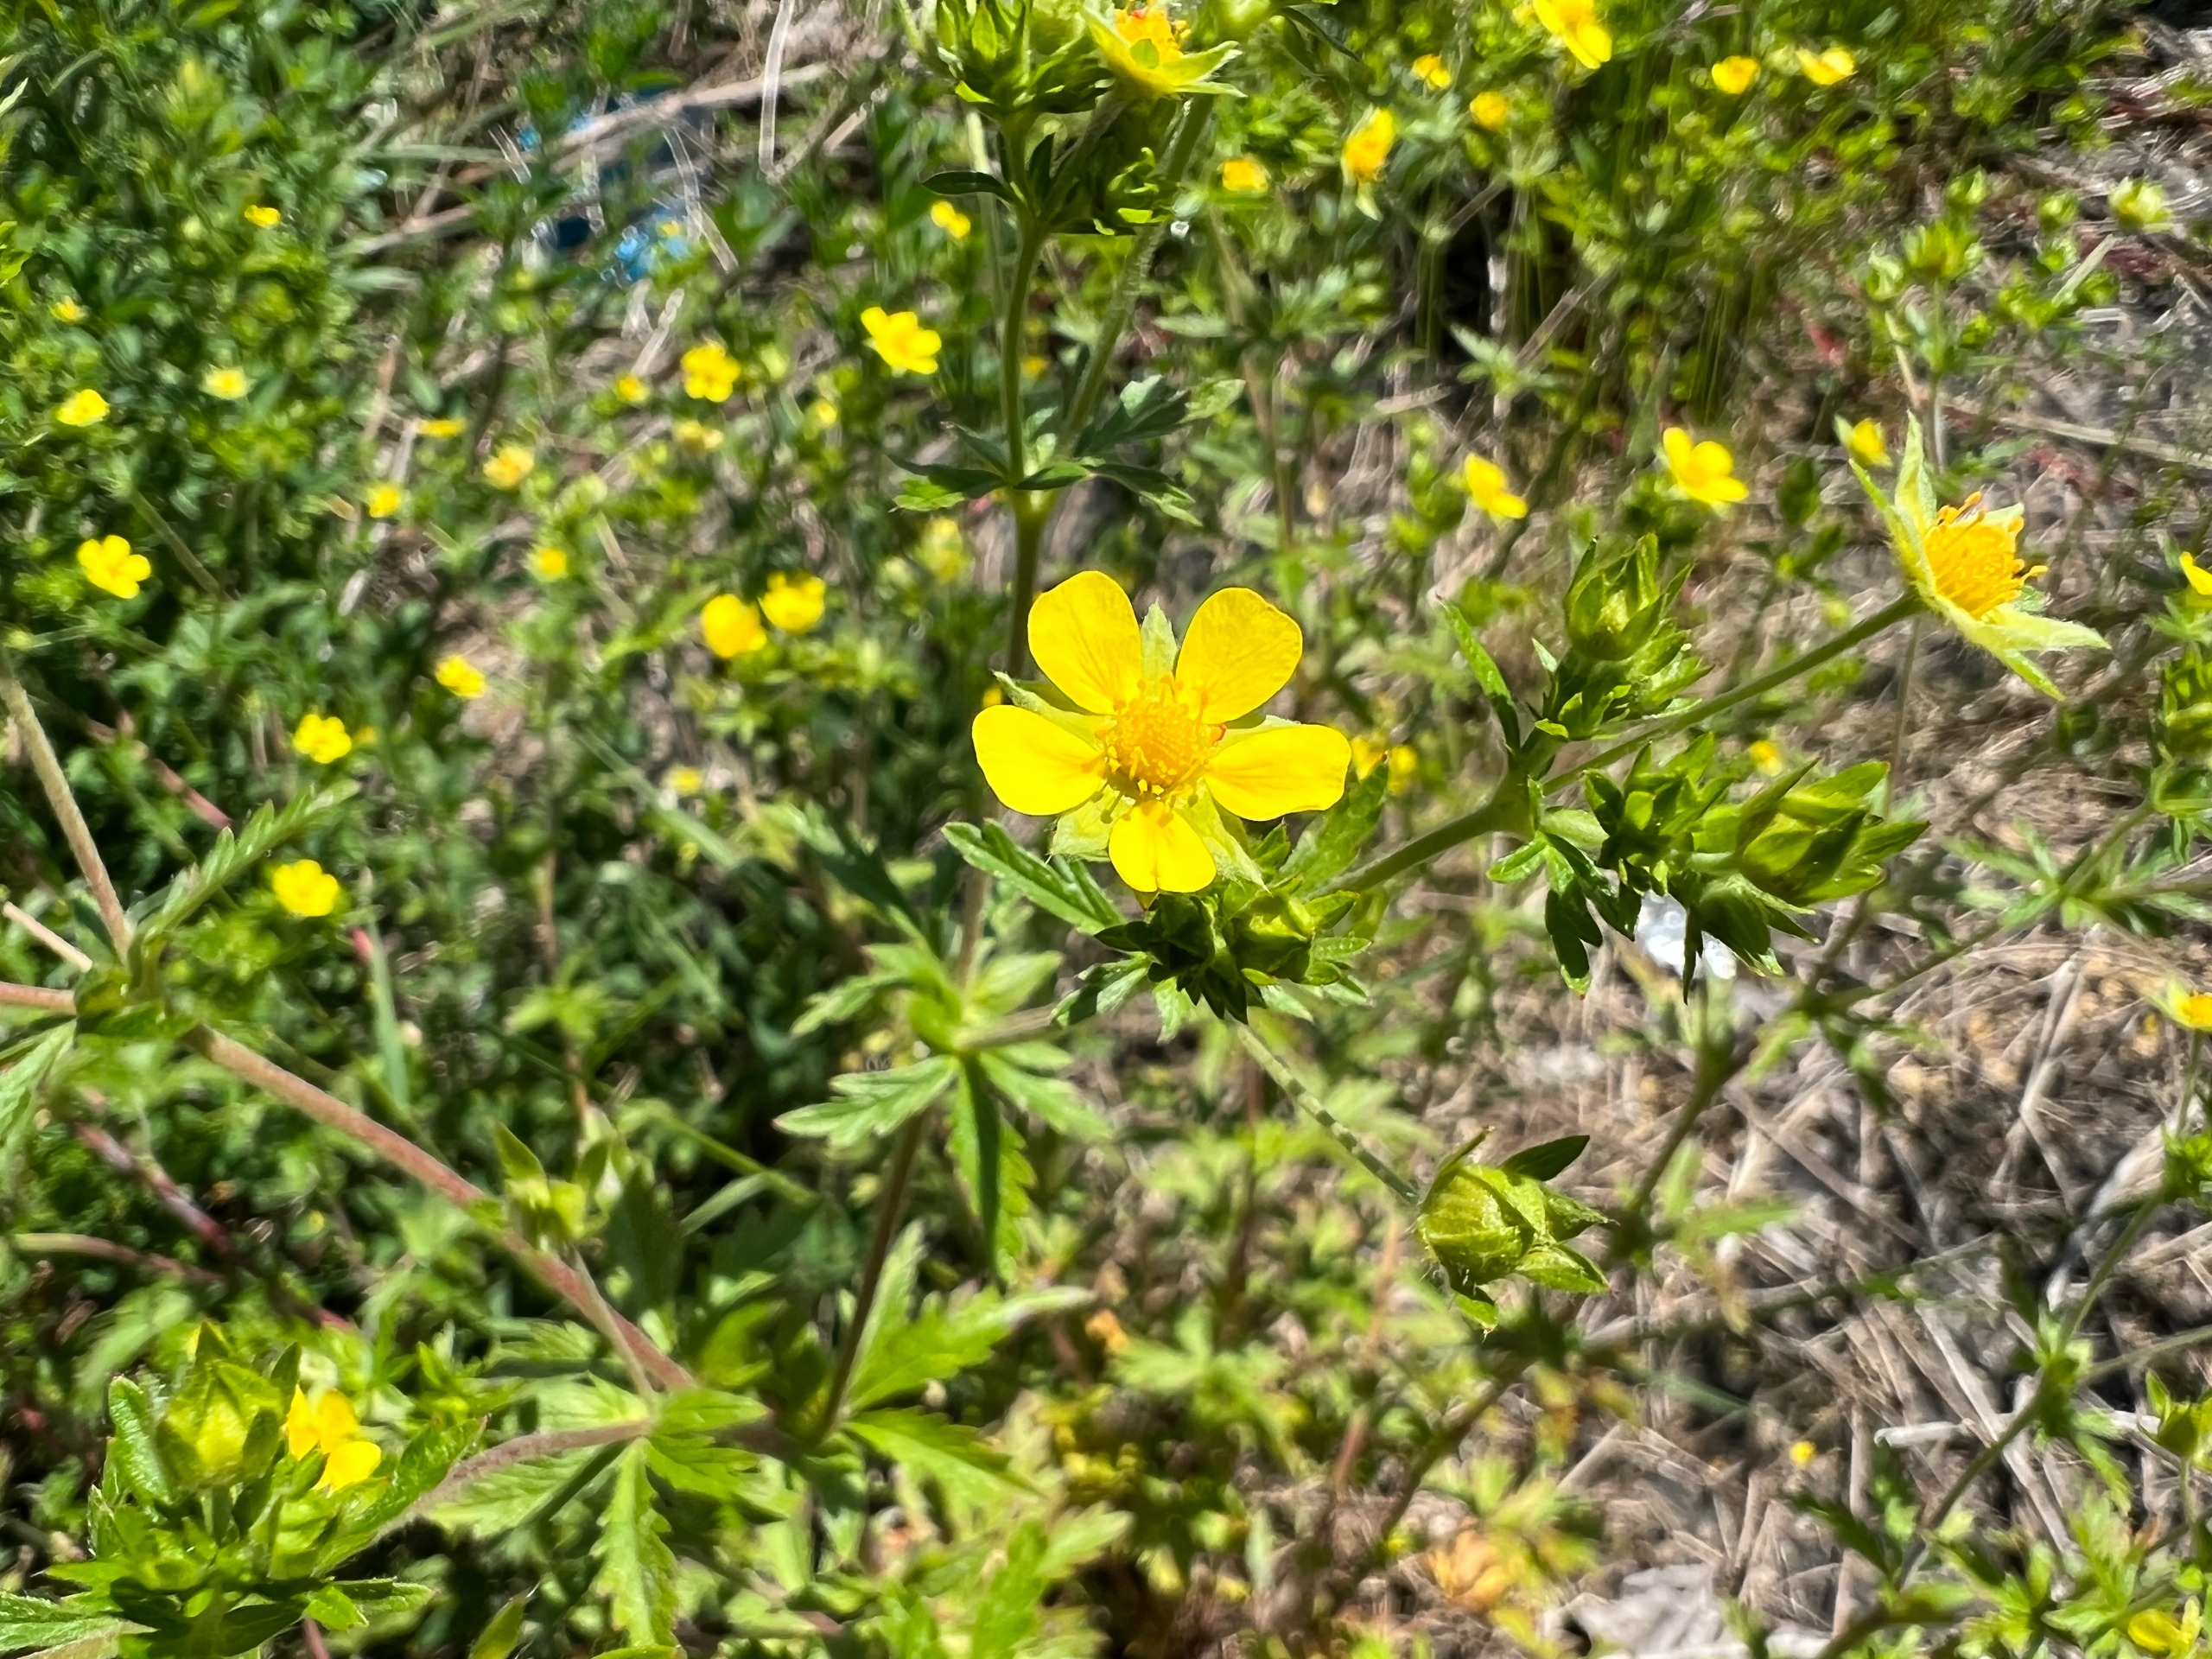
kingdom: Plantae
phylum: Tracheophyta
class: Magnoliopsida
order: Rosales
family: Rosaceae
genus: Potentilla
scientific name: Potentilla intermedia
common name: Småblomstret potentil
